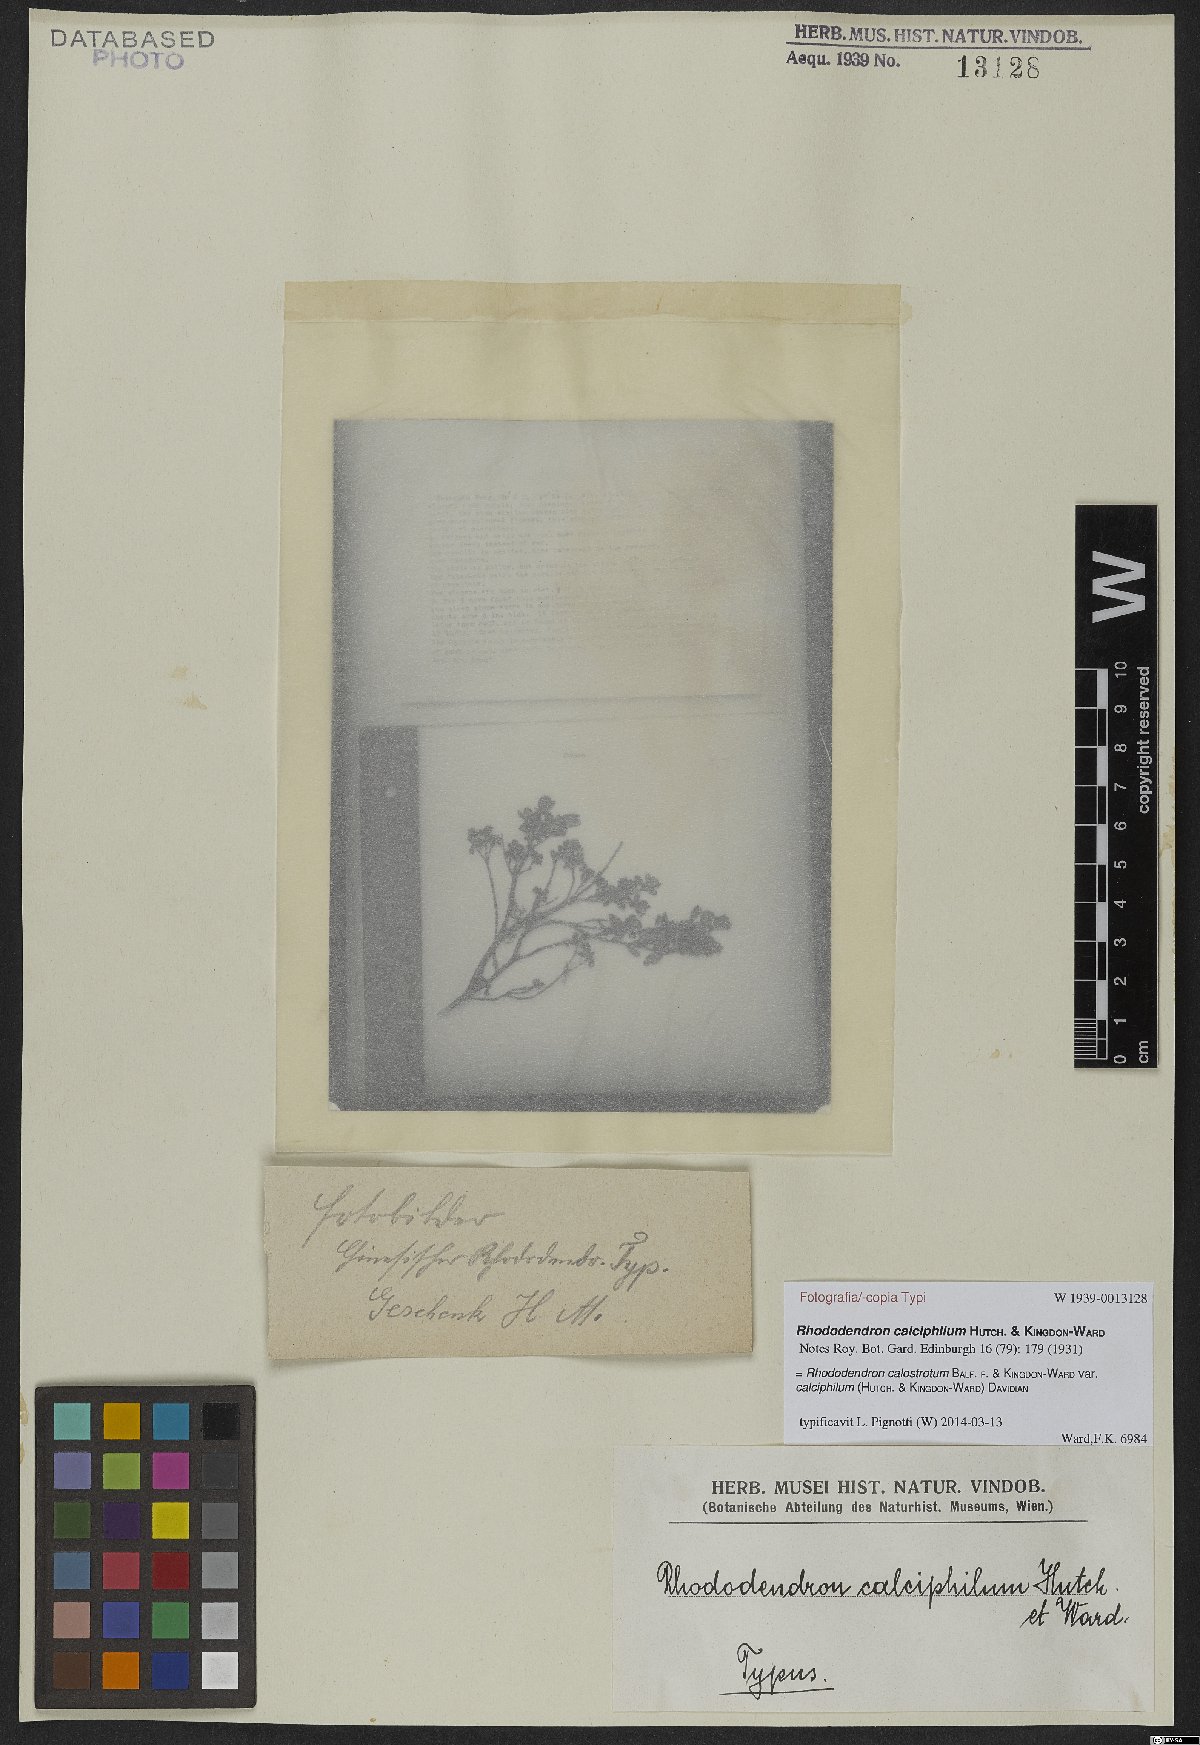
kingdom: Plantae
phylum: Tracheophyta
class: Magnoliopsida
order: Ericales
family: Ericaceae
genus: Rhododendron
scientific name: Rhododendron calostrotum
